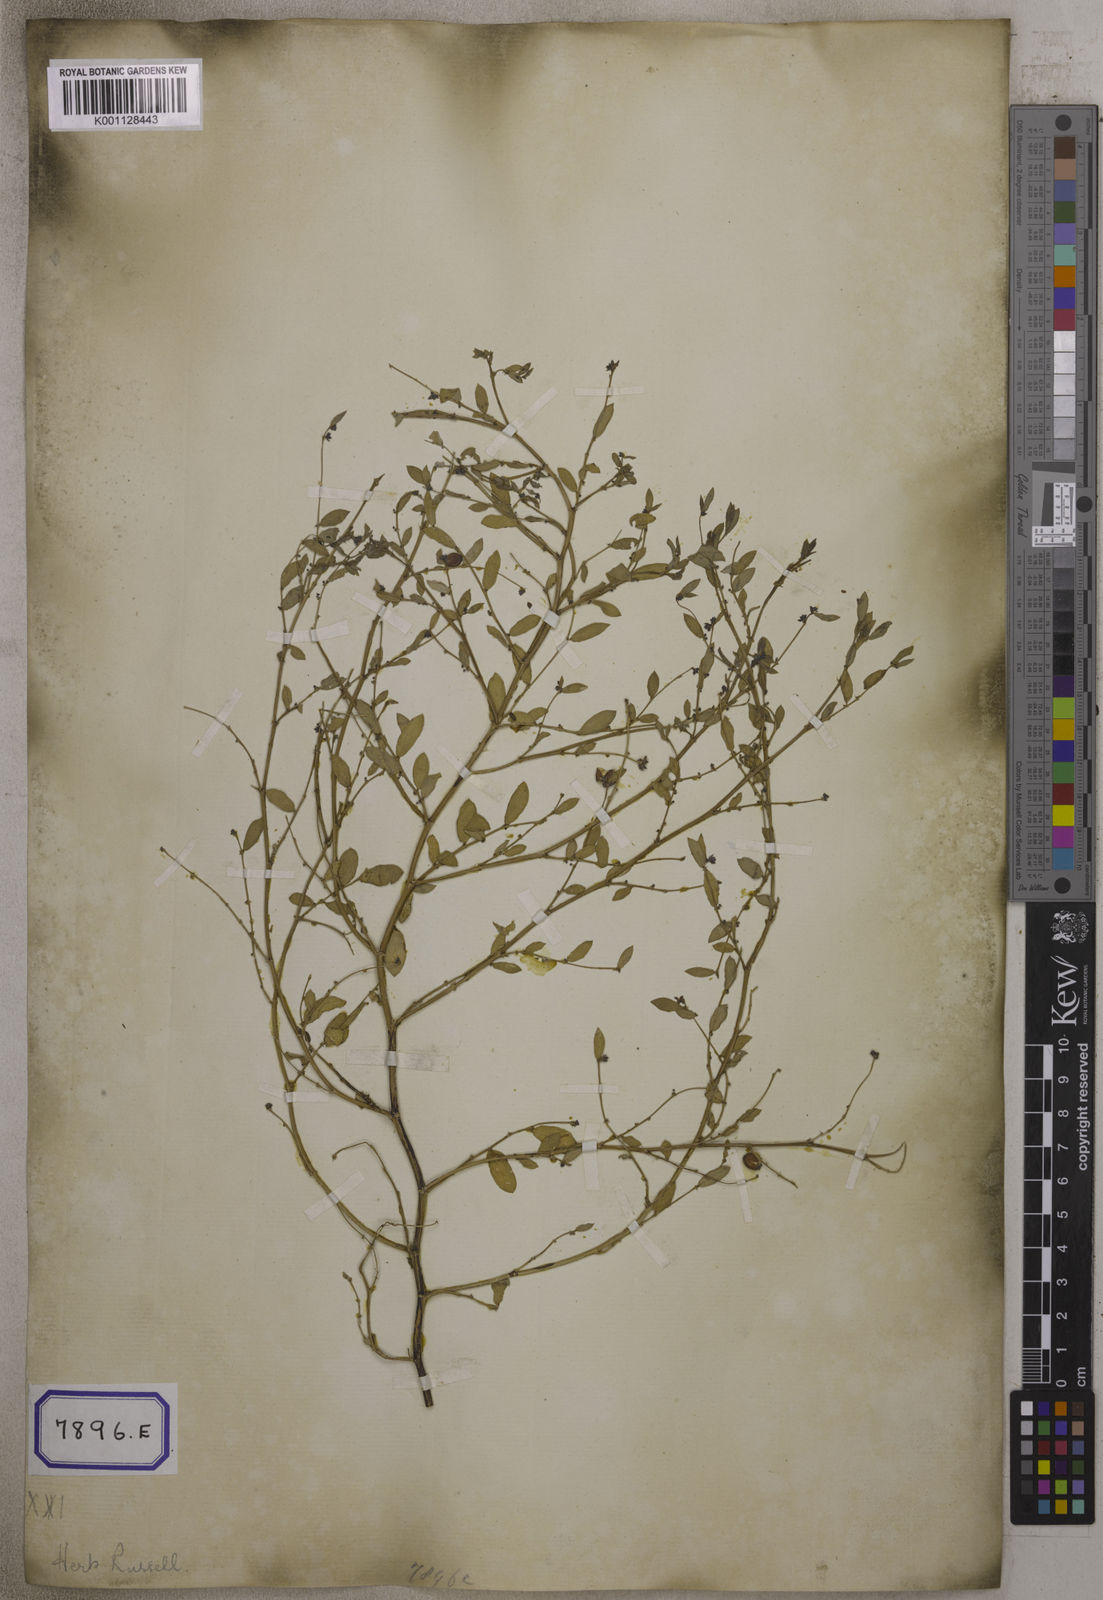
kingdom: Plantae
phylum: Tracheophyta
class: Magnoliopsida
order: Malpighiales
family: Euphorbiaceae
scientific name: Euphorbiaceae
